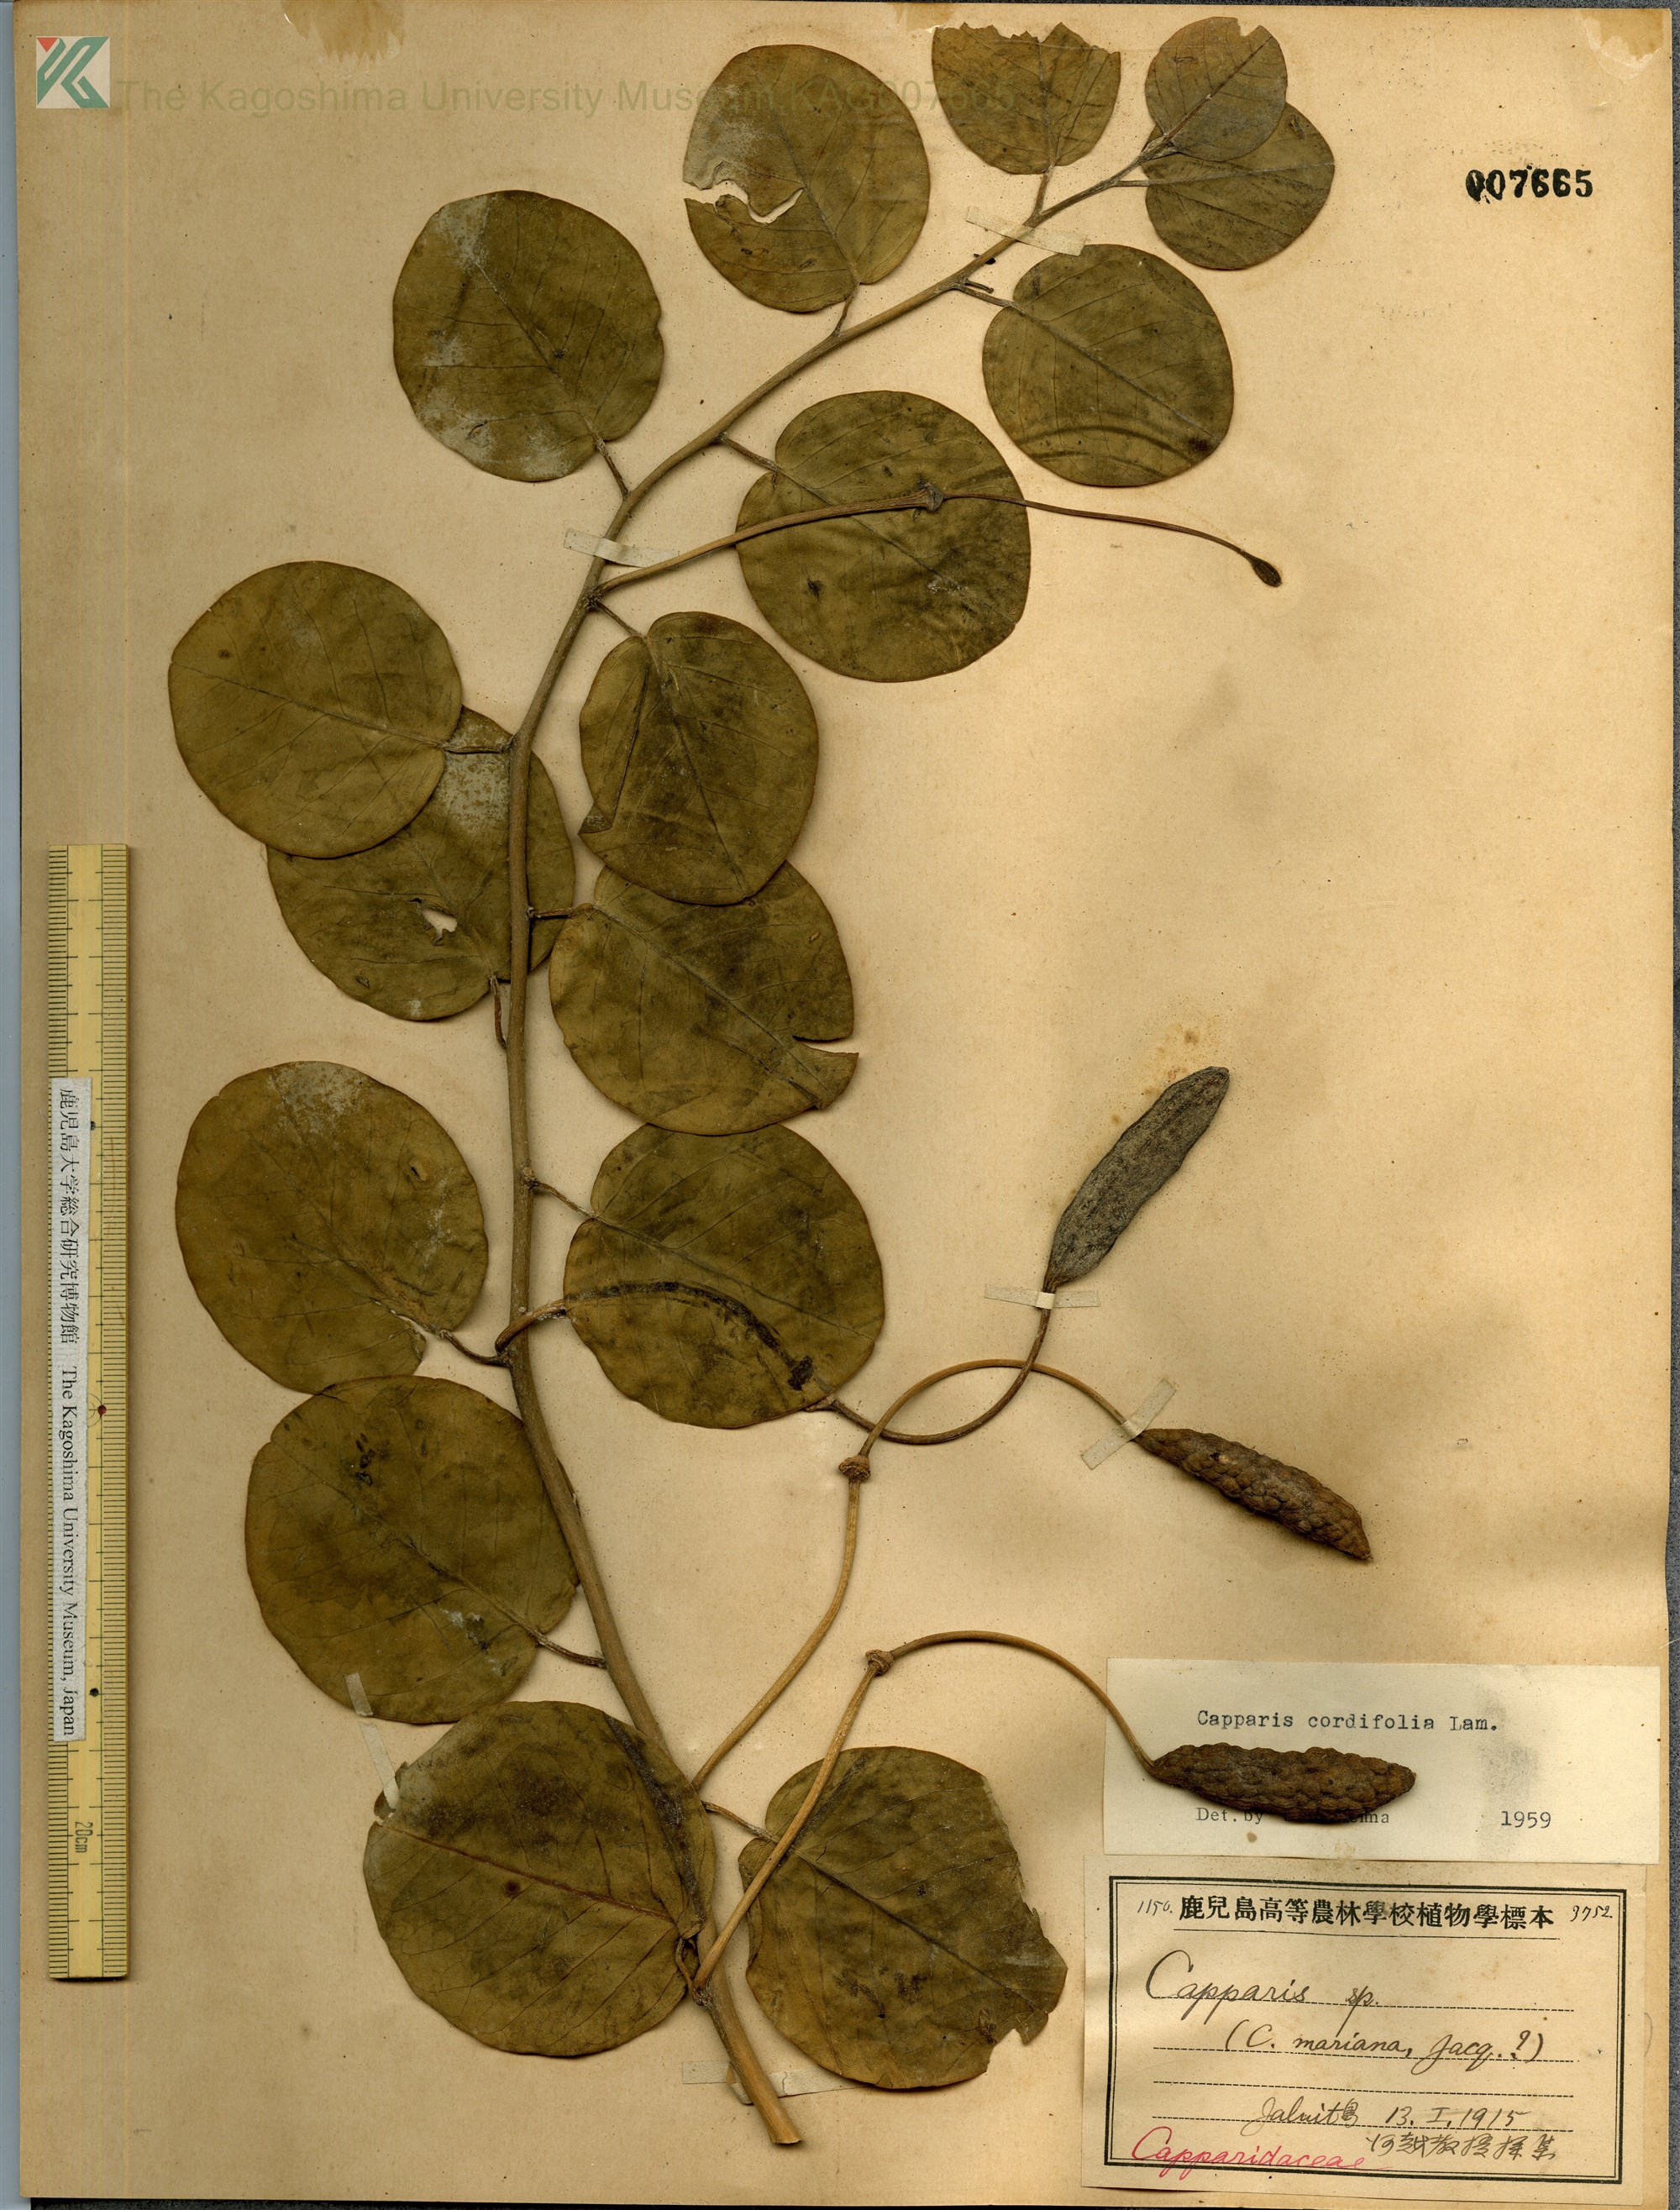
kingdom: Plantae
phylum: Tracheophyta
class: Magnoliopsida
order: Brassicales
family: Capparaceae
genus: Capparis
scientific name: Capparis spinosa
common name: Caper
